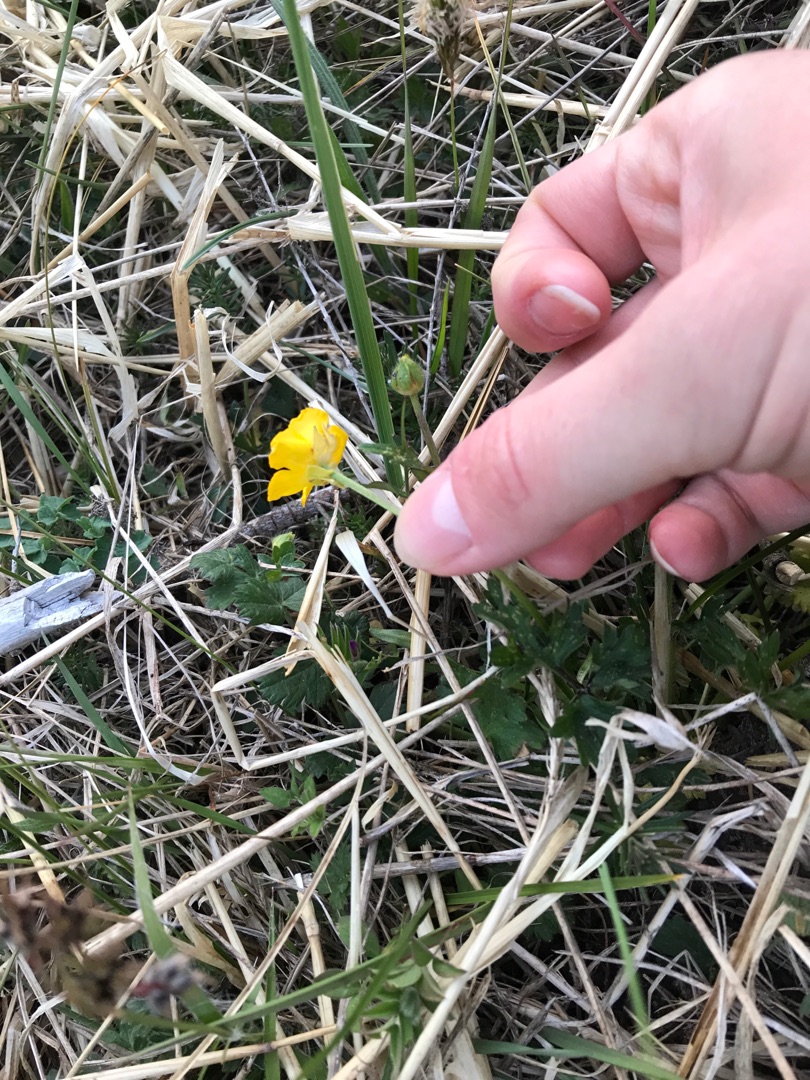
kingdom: Plantae
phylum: Tracheophyta
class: Magnoliopsida
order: Ranunculales
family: Ranunculaceae
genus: Ranunculus
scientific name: Ranunculus bulbosus
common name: Knold-ranunkel
